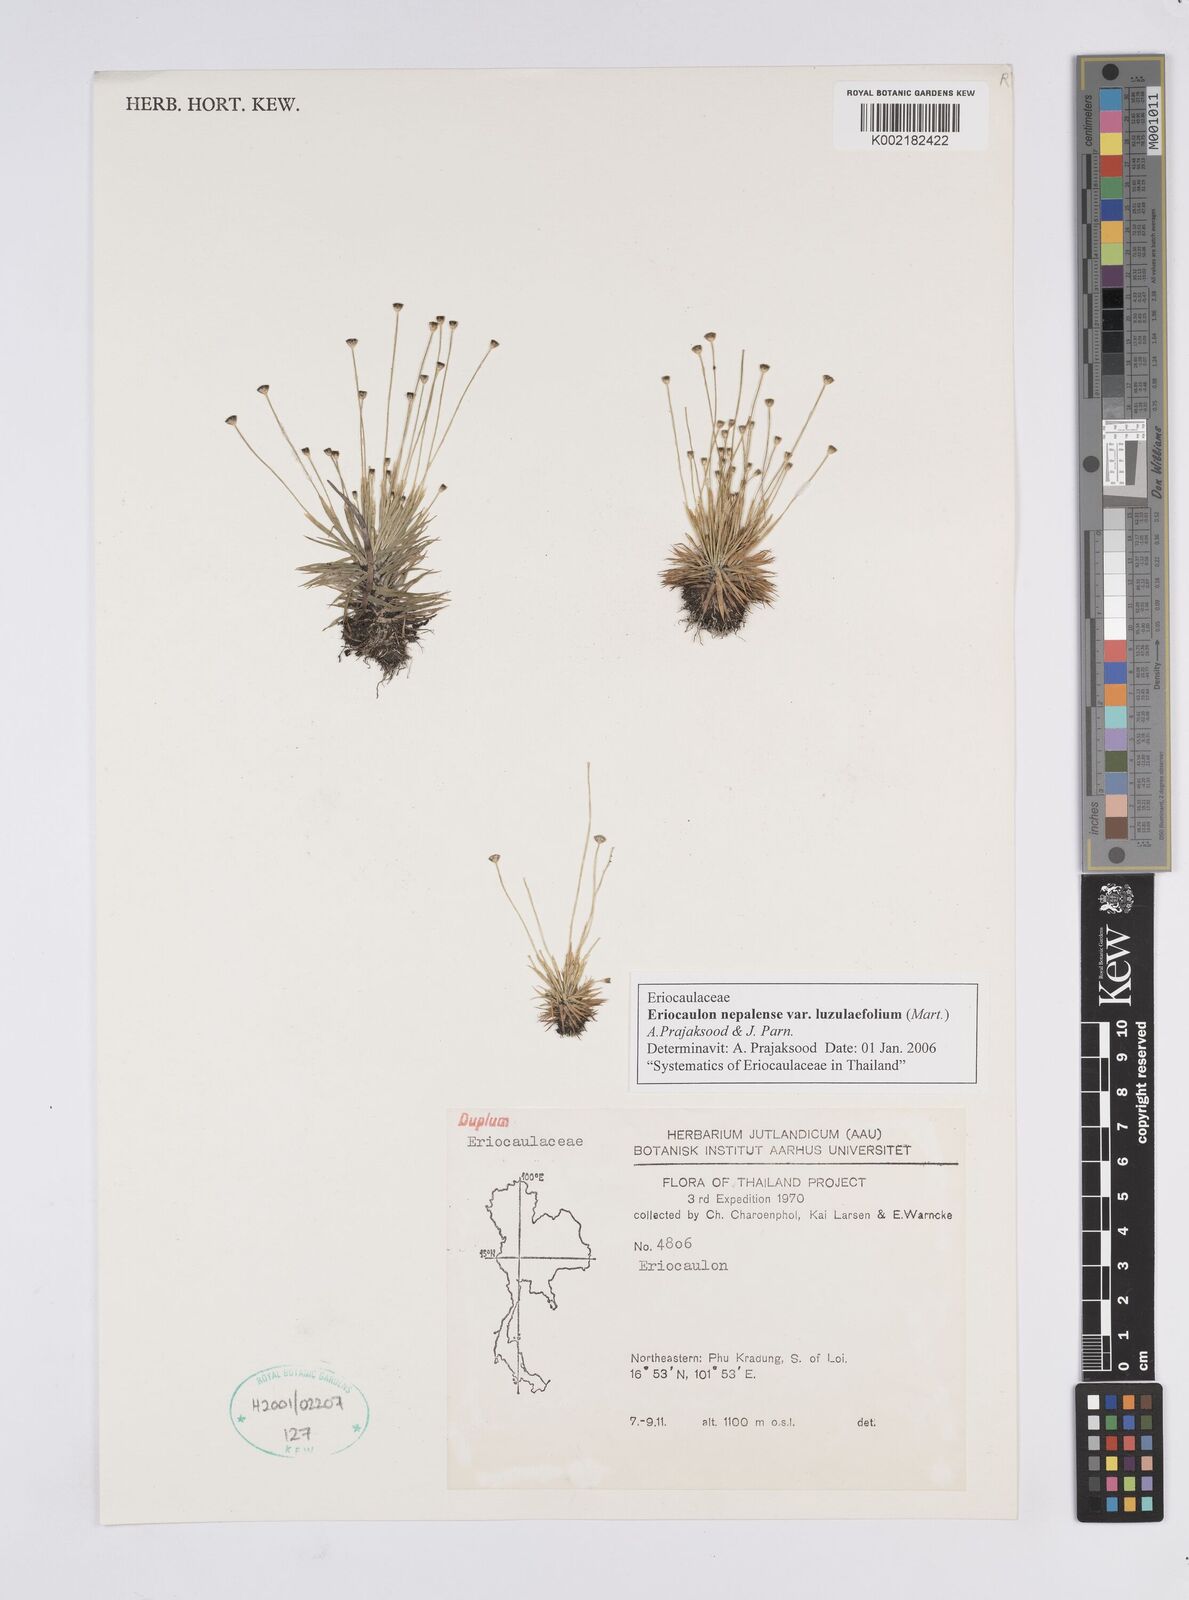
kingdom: Plantae
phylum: Tracheophyta
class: Liliopsida
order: Poales
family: Eriocaulaceae
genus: Eriocaulon
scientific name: Eriocaulon nepalense
